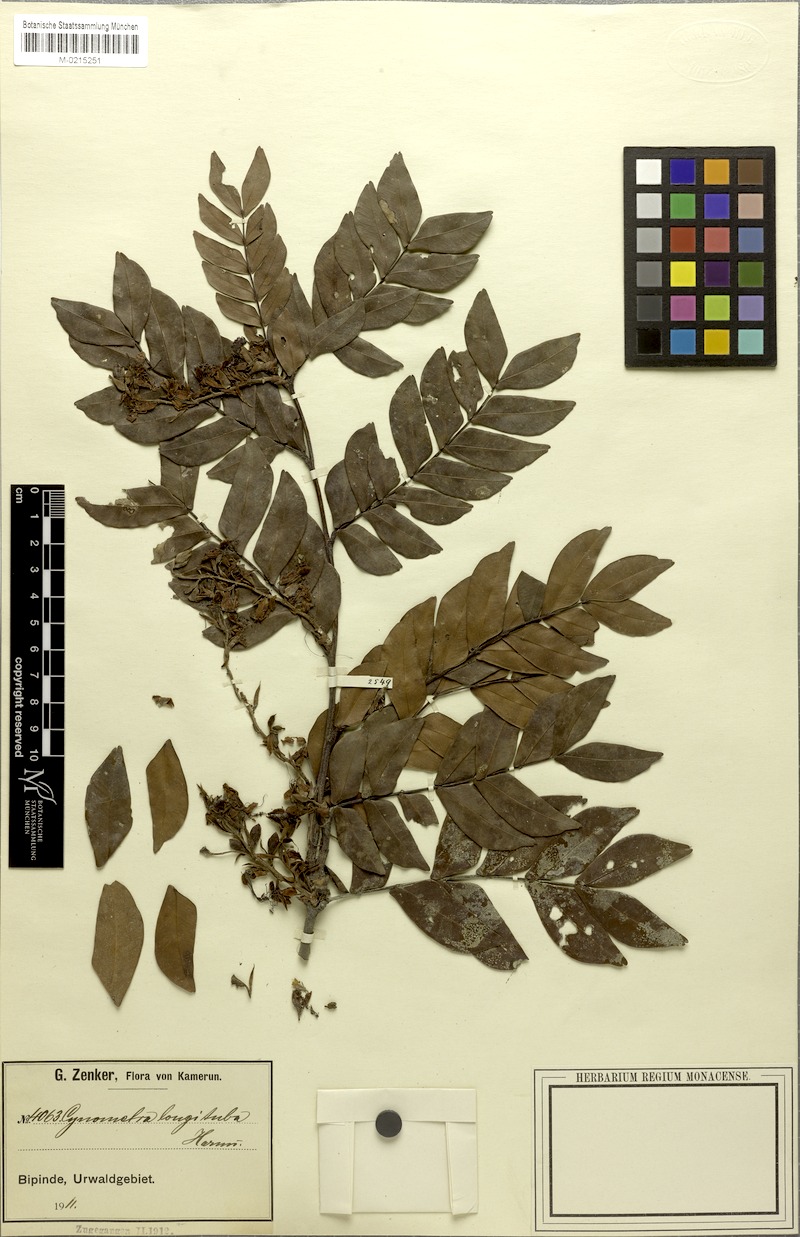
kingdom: Plantae
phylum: Tracheophyta
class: Magnoliopsida
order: Fabales
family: Fabaceae
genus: Plagiosiphon
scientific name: Plagiosiphon longituba
